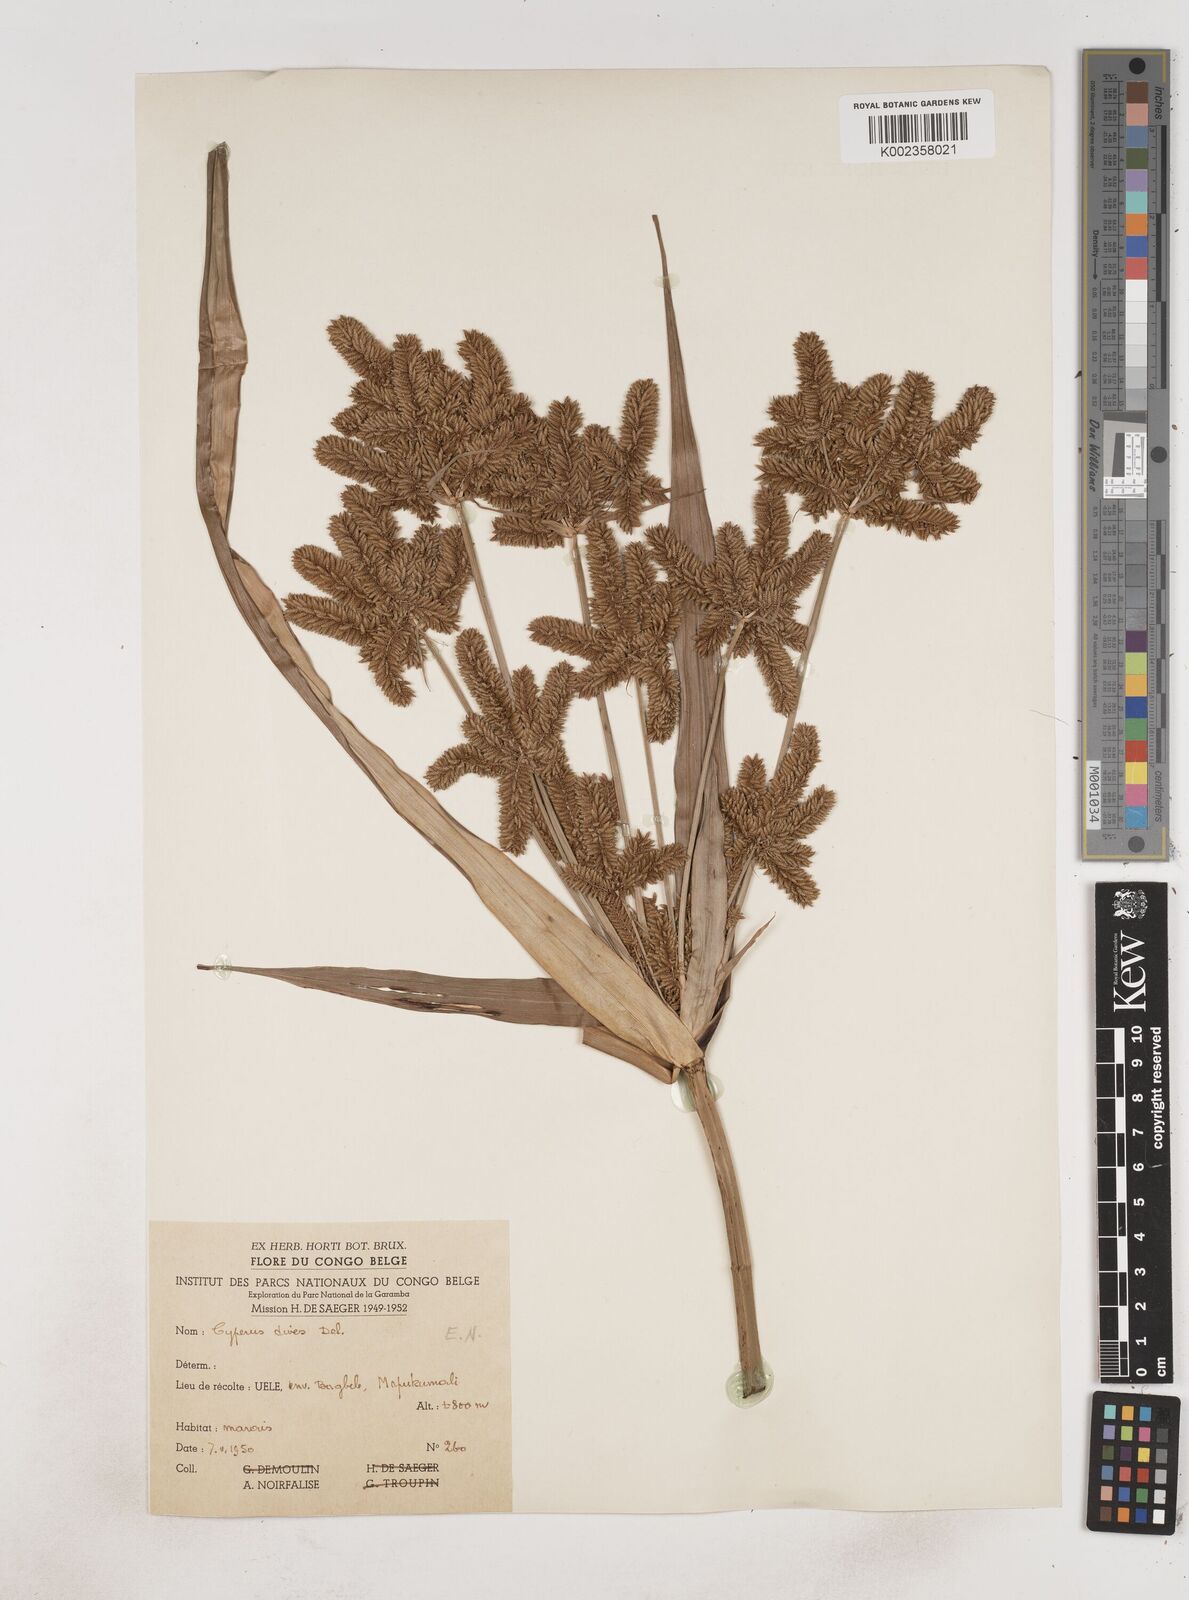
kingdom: Plantae
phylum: Tracheophyta
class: Liliopsida
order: Poales
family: Cyperaceae
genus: Cyperus
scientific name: Cyperus dives
